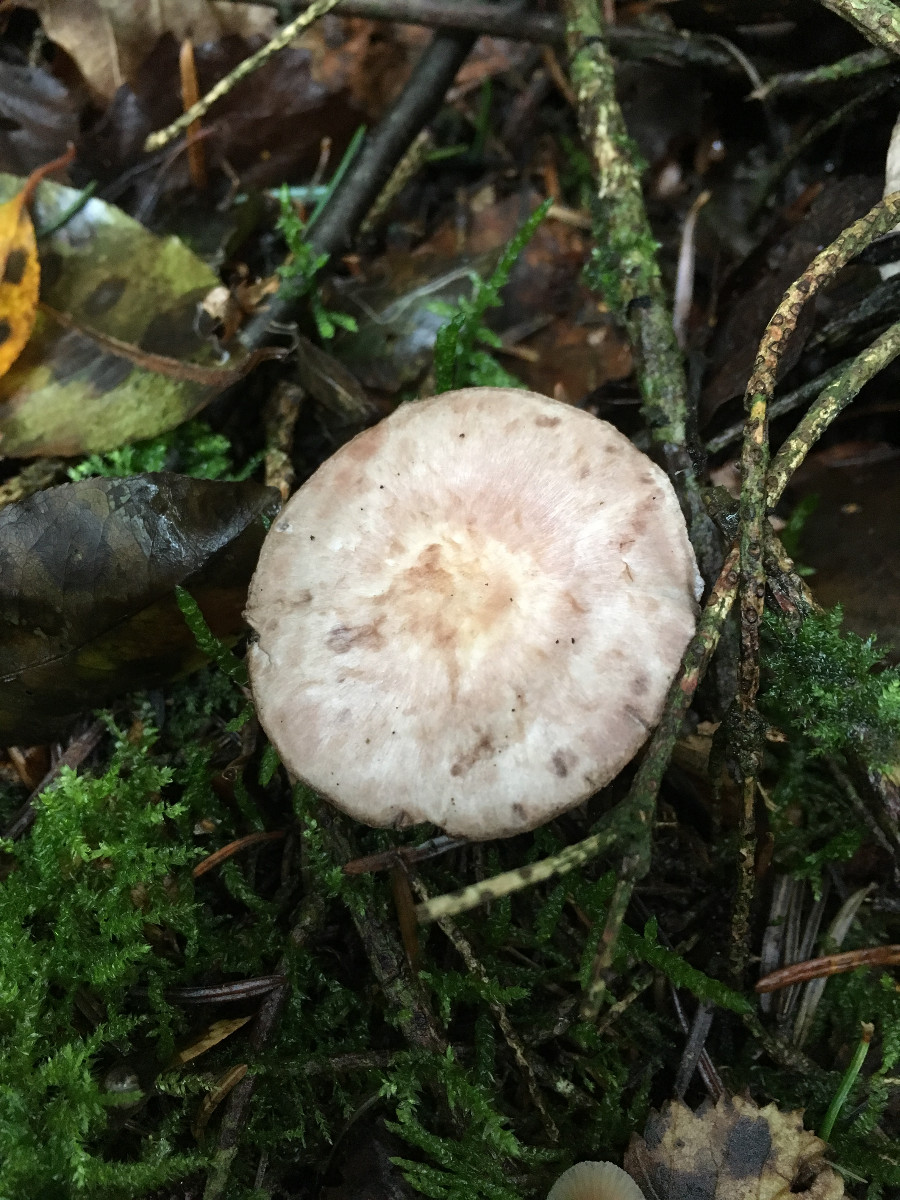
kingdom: Fungi
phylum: Basidiomycota
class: Agaricomycetes
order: Agaricales
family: Agaricaceae
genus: Agaricus
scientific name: Agaricus
